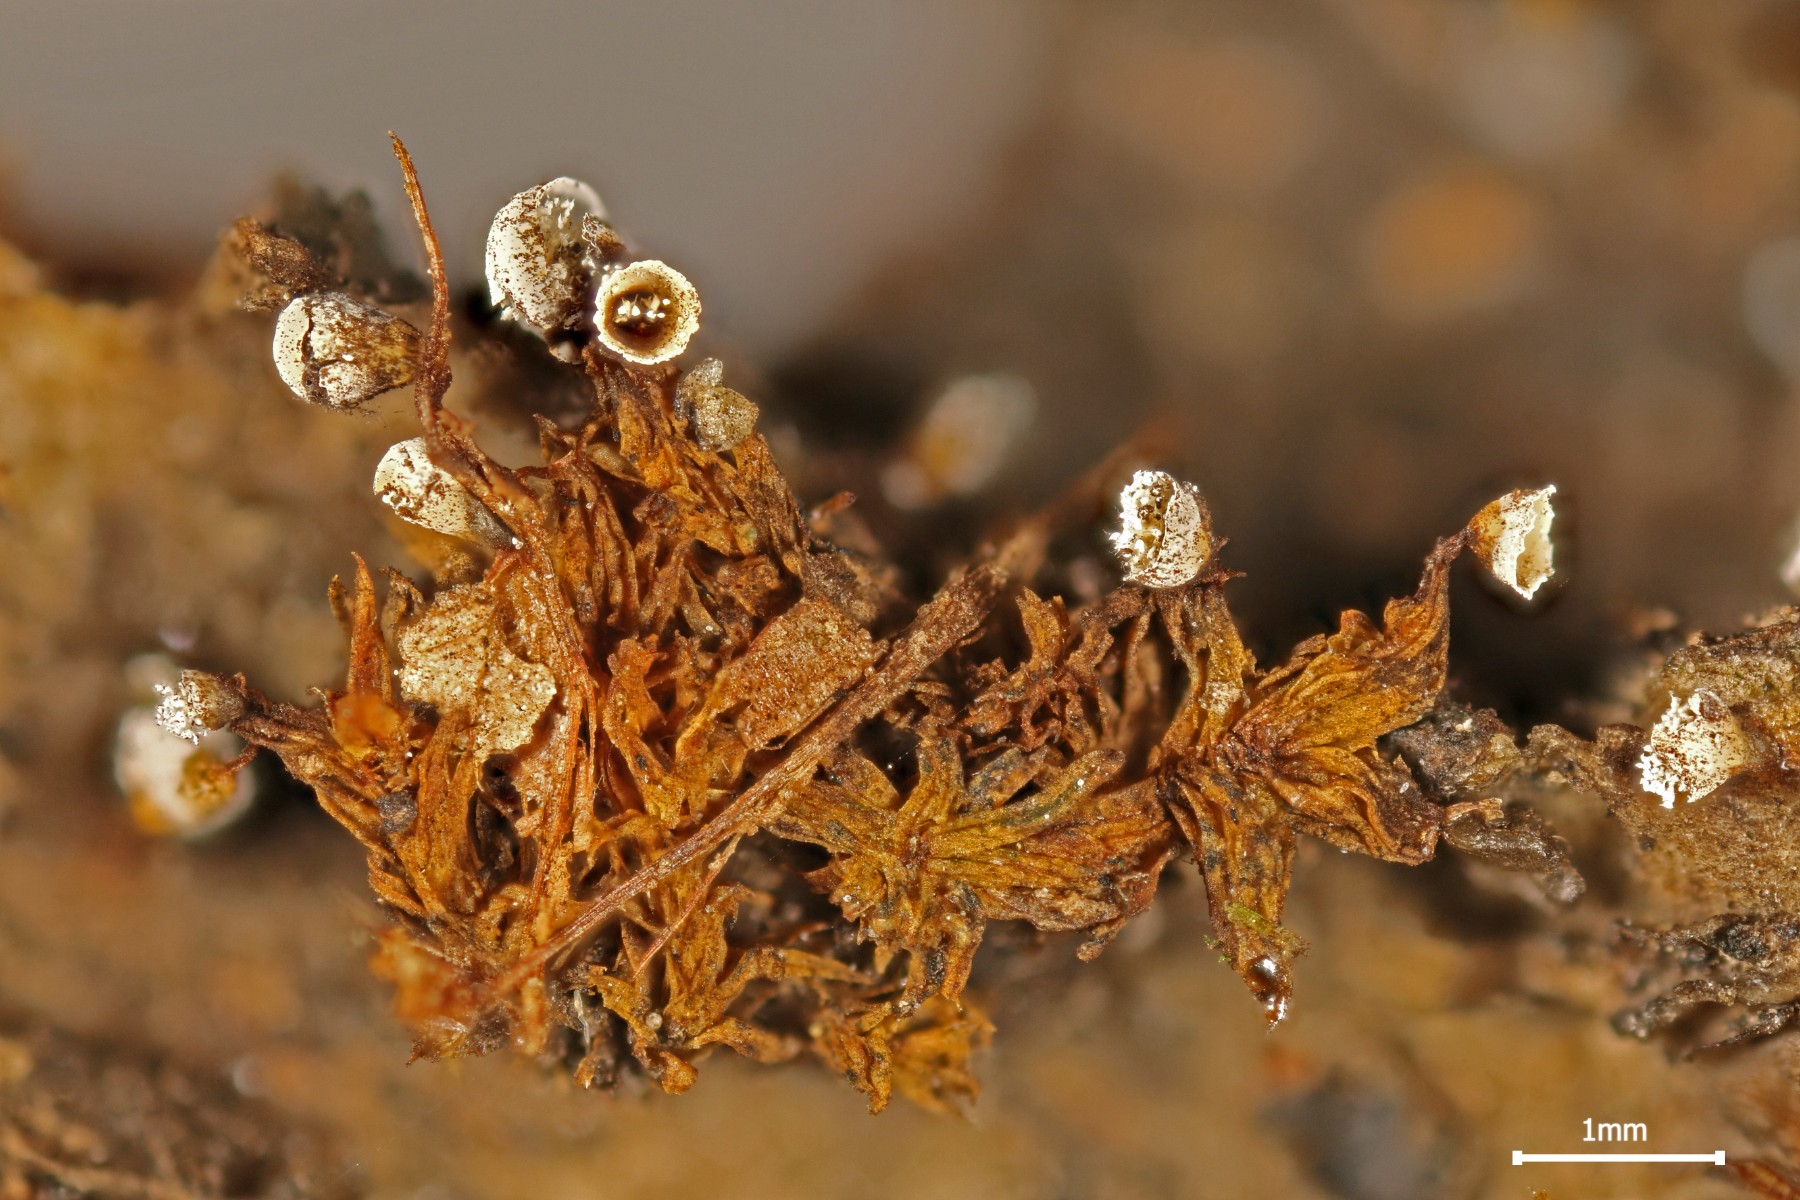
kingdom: Protozoa
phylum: Mycetozoa
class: Myxomycetes
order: Physarales
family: Physaraceae
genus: Craterium
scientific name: Craterium leucocephalum
